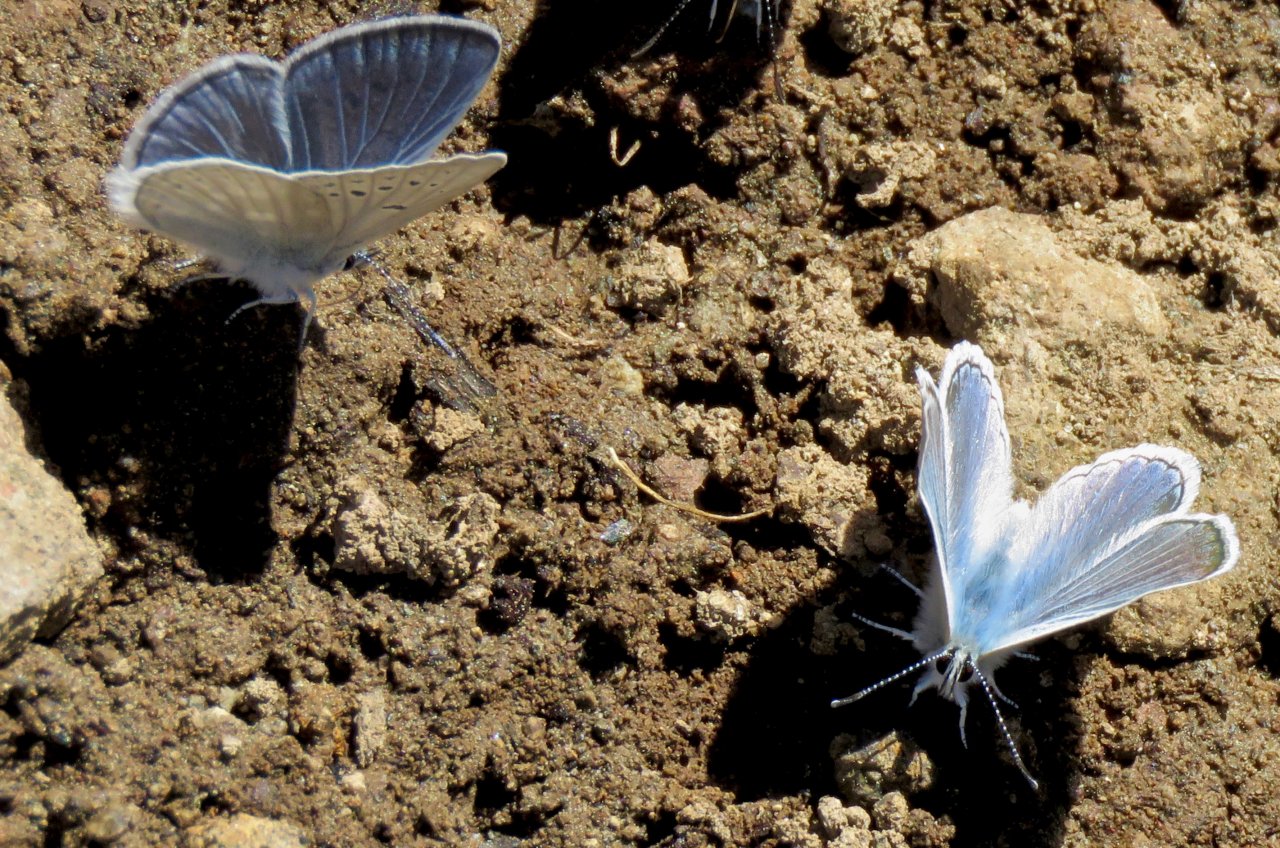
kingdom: Animalia
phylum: Arthropoda
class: Insecta
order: Lepidoptera
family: Lycaenidae
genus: Icaricia
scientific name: Icaricia icarioides
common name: Boisduval's Blue
